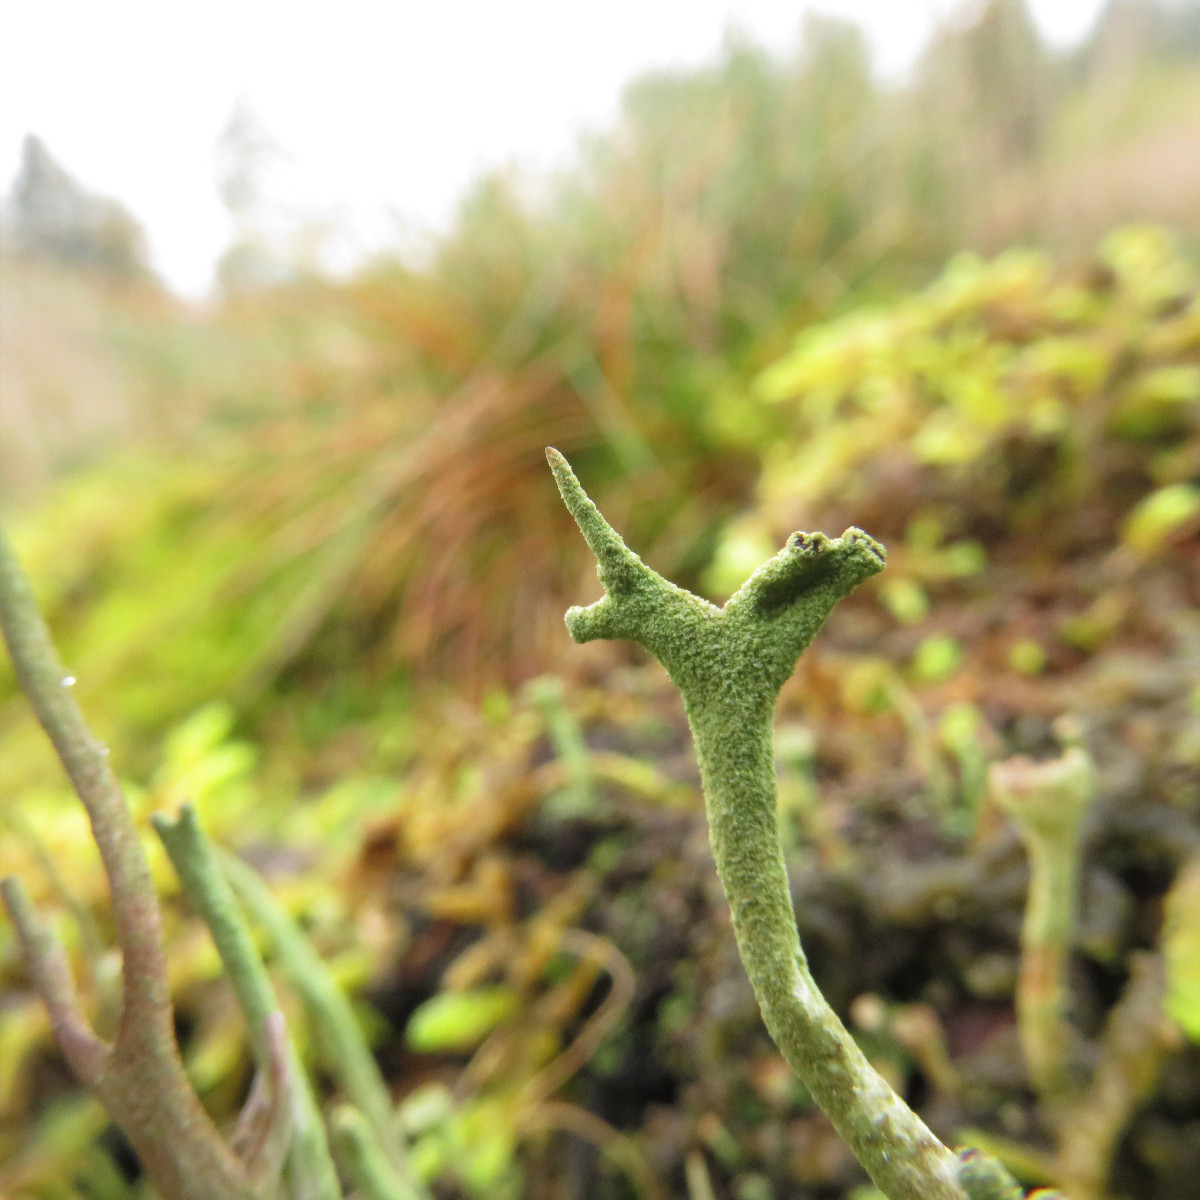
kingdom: Fungi
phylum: Ascomycota
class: Lecanoromycetes
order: Lecanorales
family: Cladoniaceae
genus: Cladonia
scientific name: Cladonia subulata
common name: spids bægerlav
